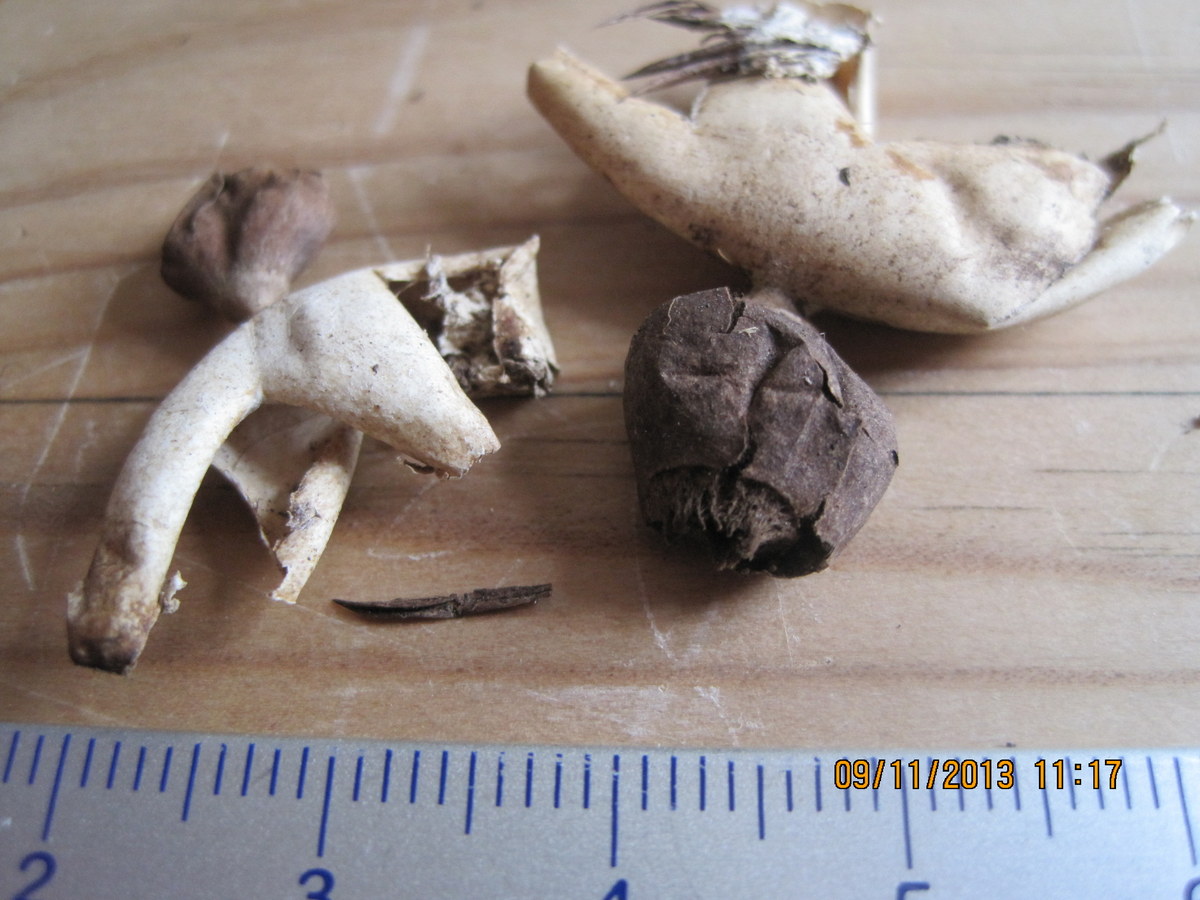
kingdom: Fungi
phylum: Basidiomycota
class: Agaricomycetes
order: Geastrales
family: Geastraceae
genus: Geastrum
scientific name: Geastrum quadrifidum
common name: firfliget stjernebold
